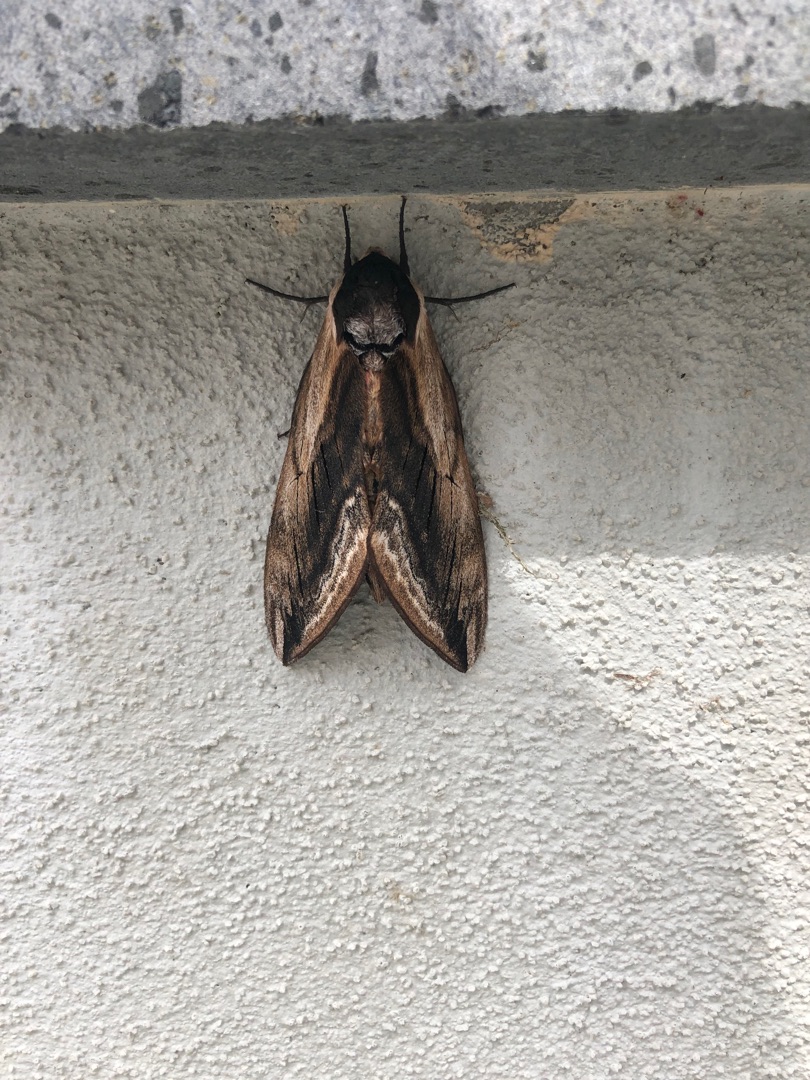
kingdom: Animalia
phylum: Arthropoda
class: Insecta
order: Lepidoptera
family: Sphingidae
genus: Sphinx
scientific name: Sphinx ligustri
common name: Ligustersværmer
